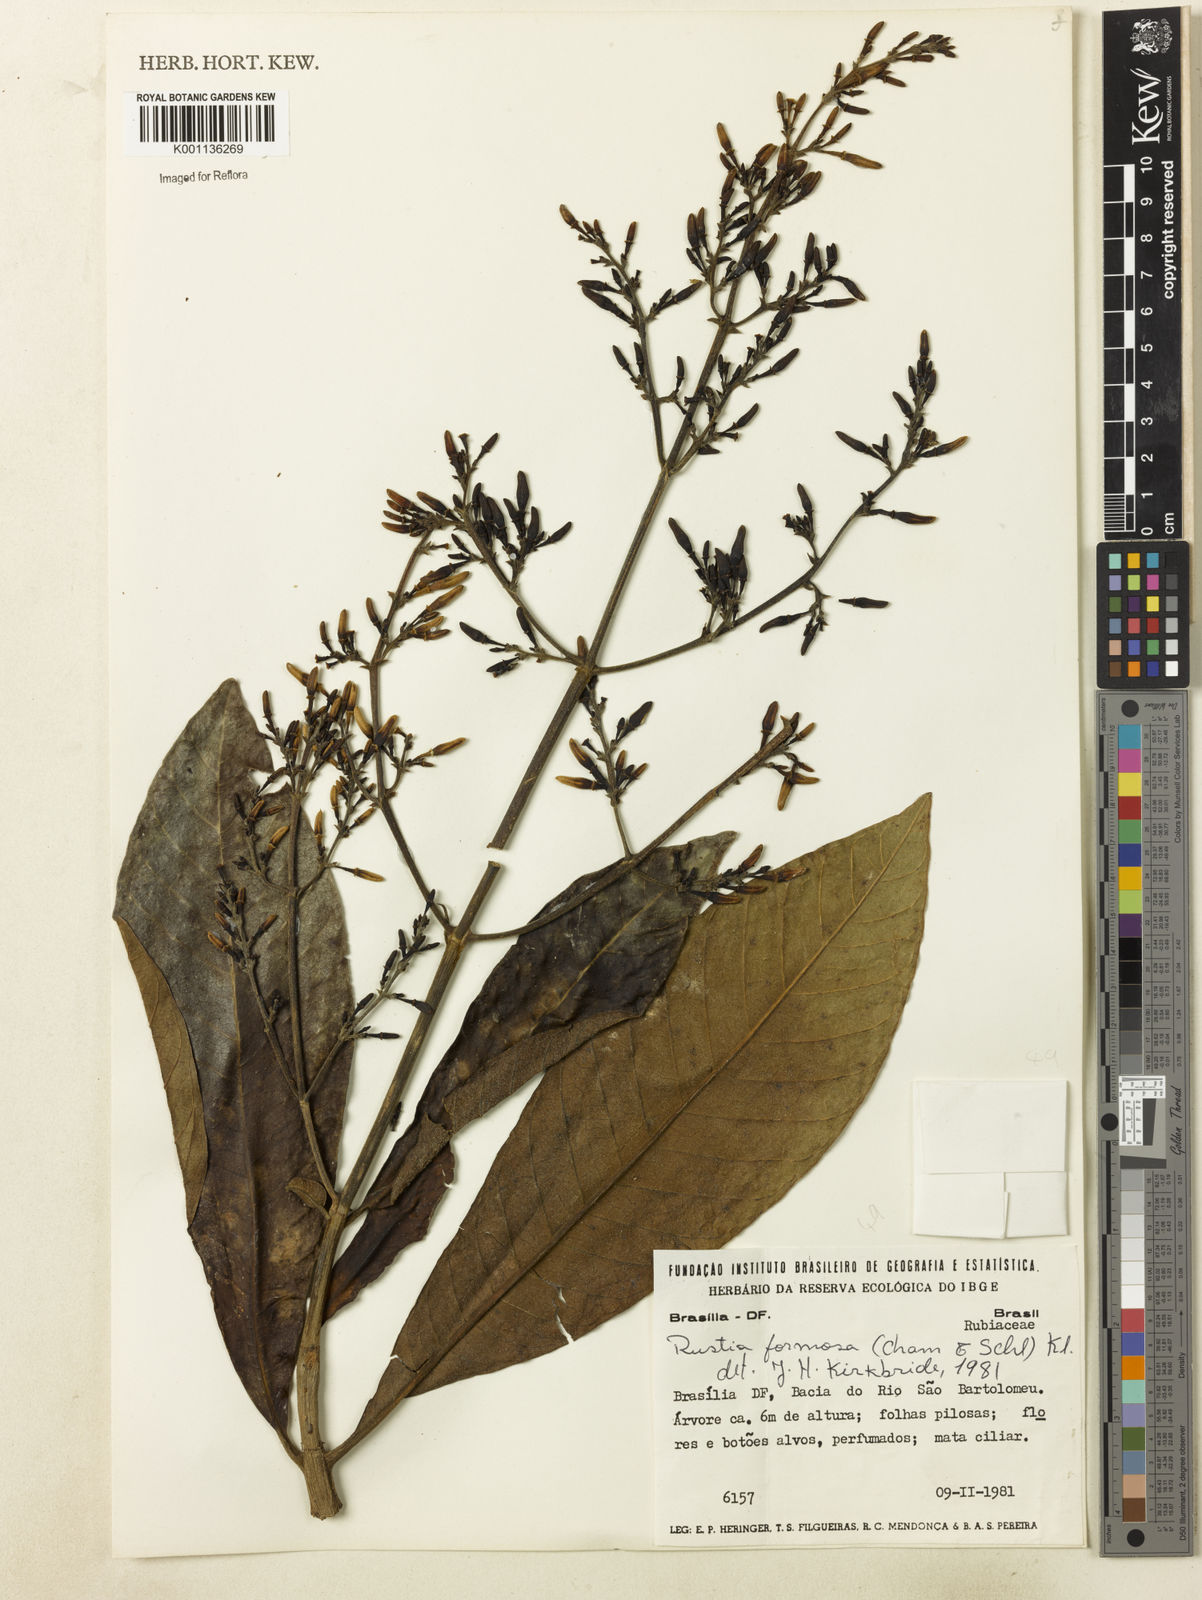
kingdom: Plantae
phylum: Tracheophyta
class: Magnoliopsida
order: Gentianales
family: Rubiaceae
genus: Rustia
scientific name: Rustia formosa
